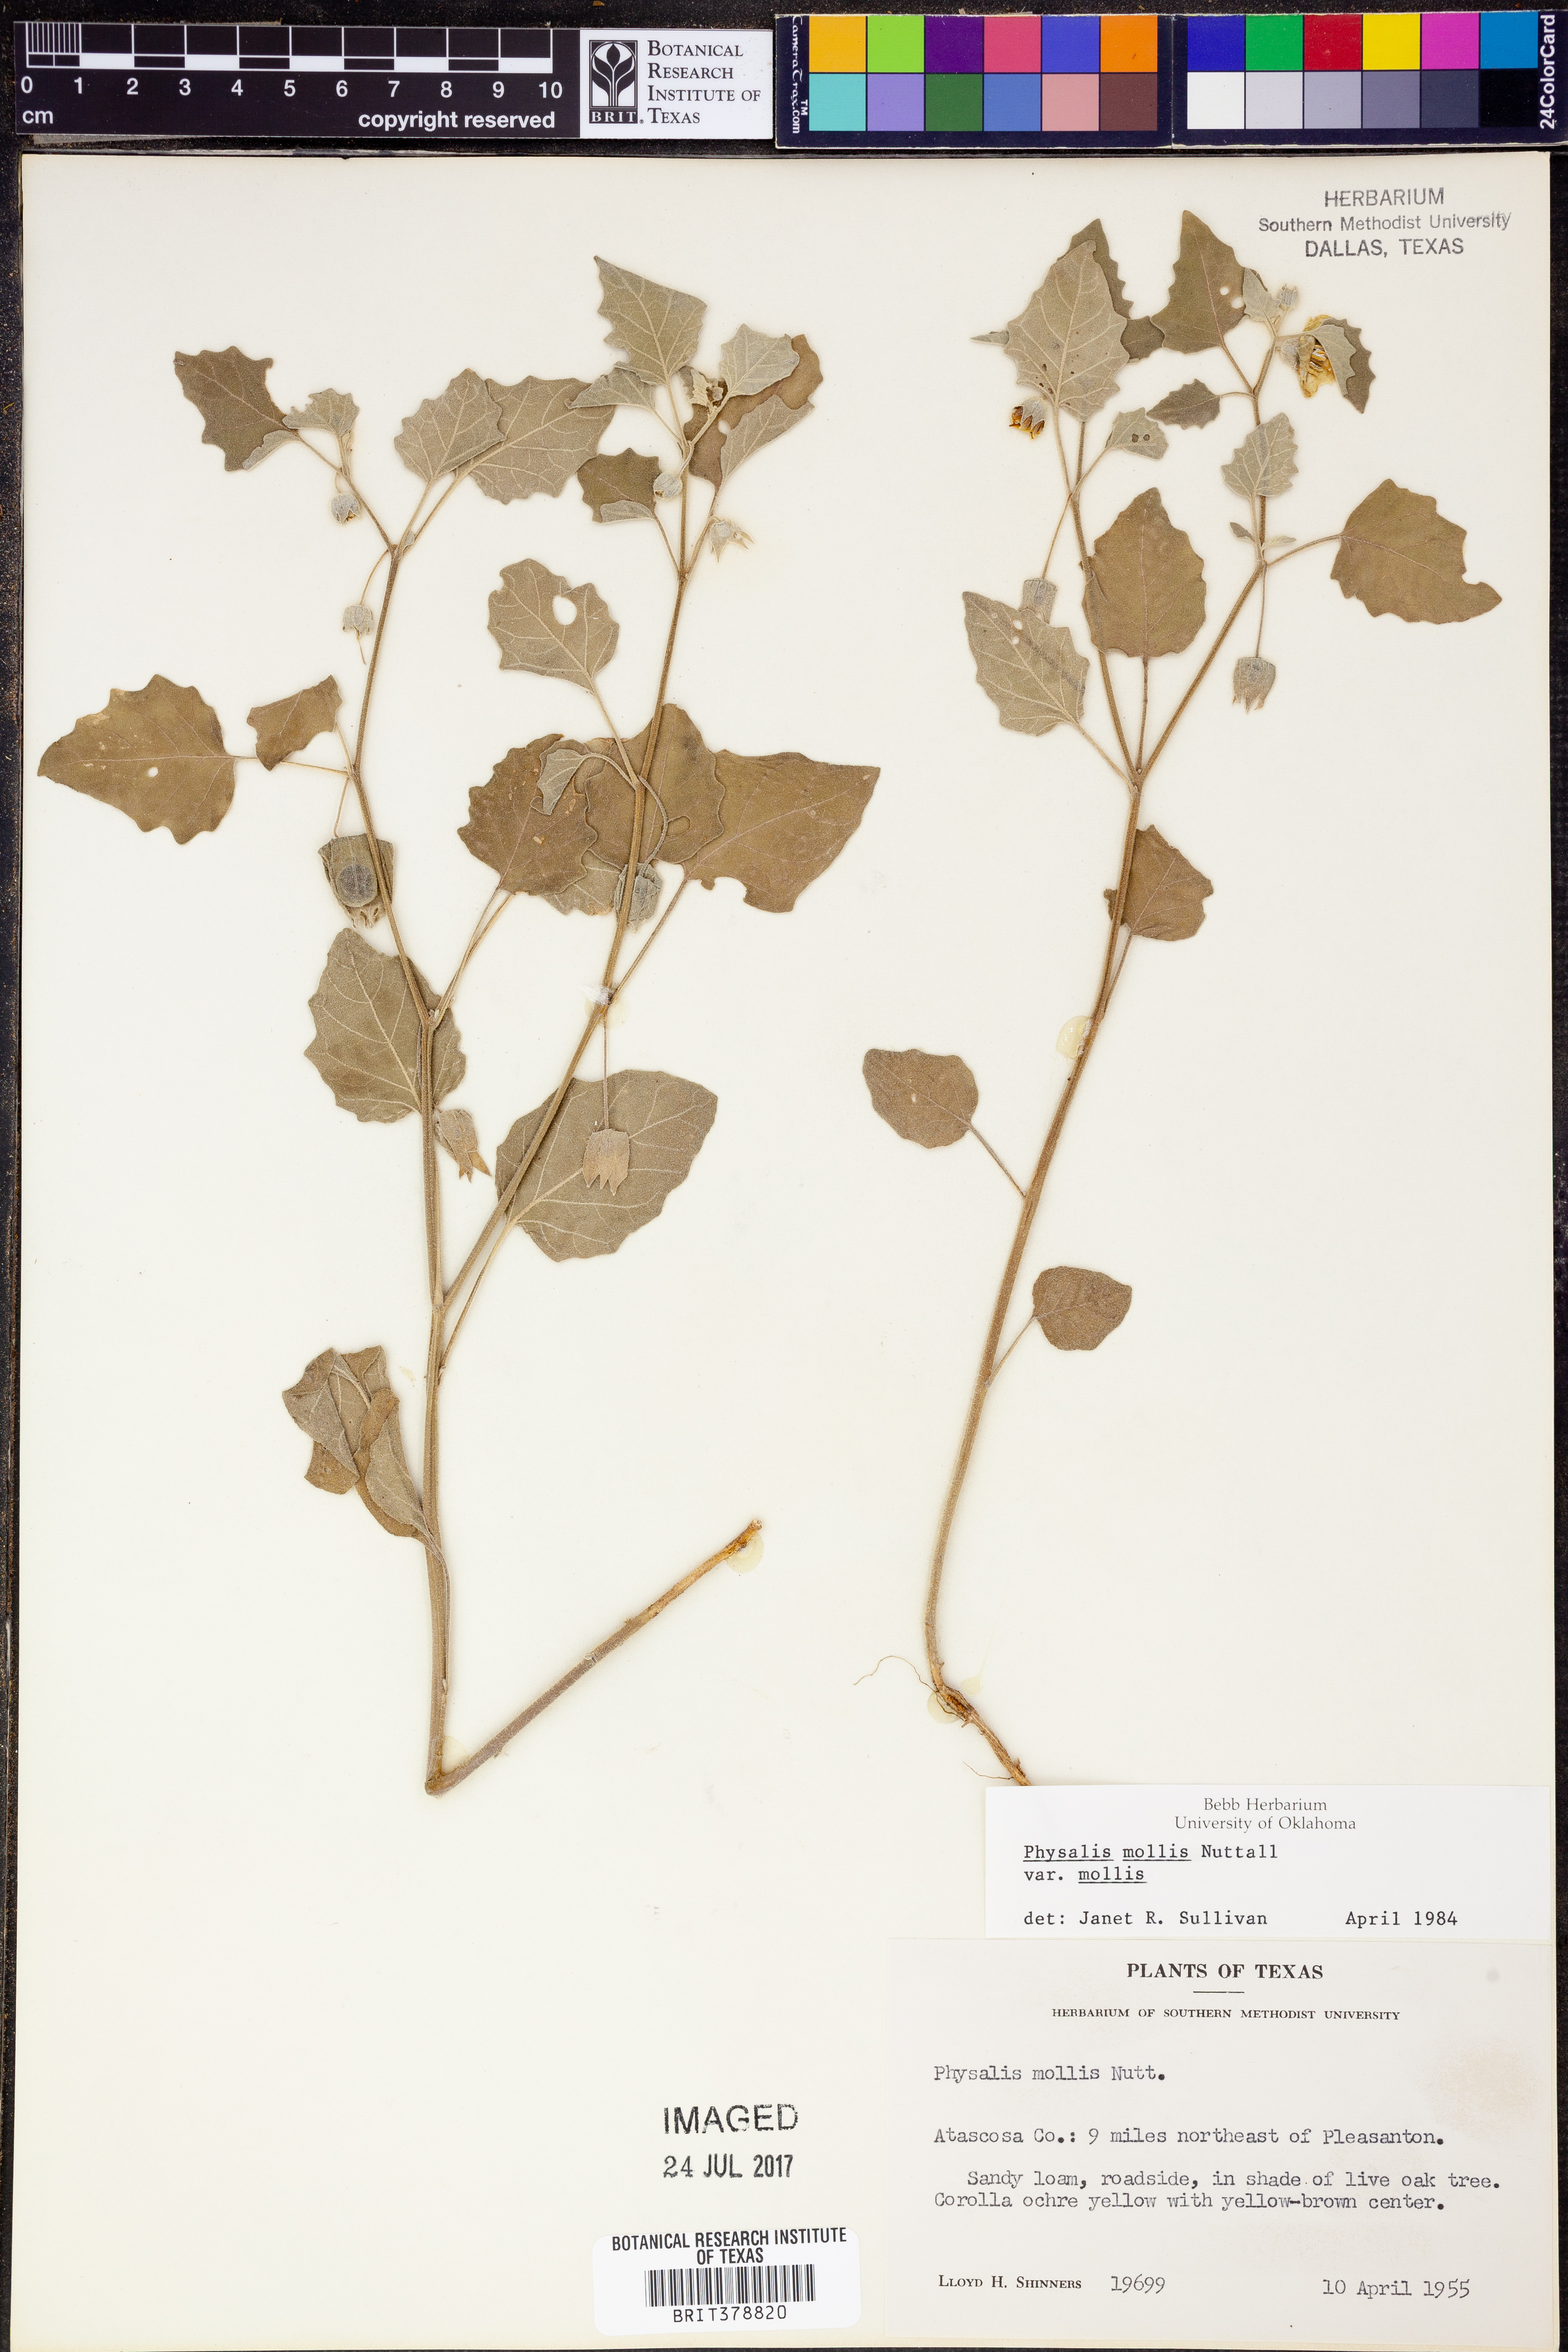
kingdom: Plantae
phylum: Tracheophyta
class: Magnoliopsida
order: Solanales
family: Solanaceae
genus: Physalis
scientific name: Physalis mollis
